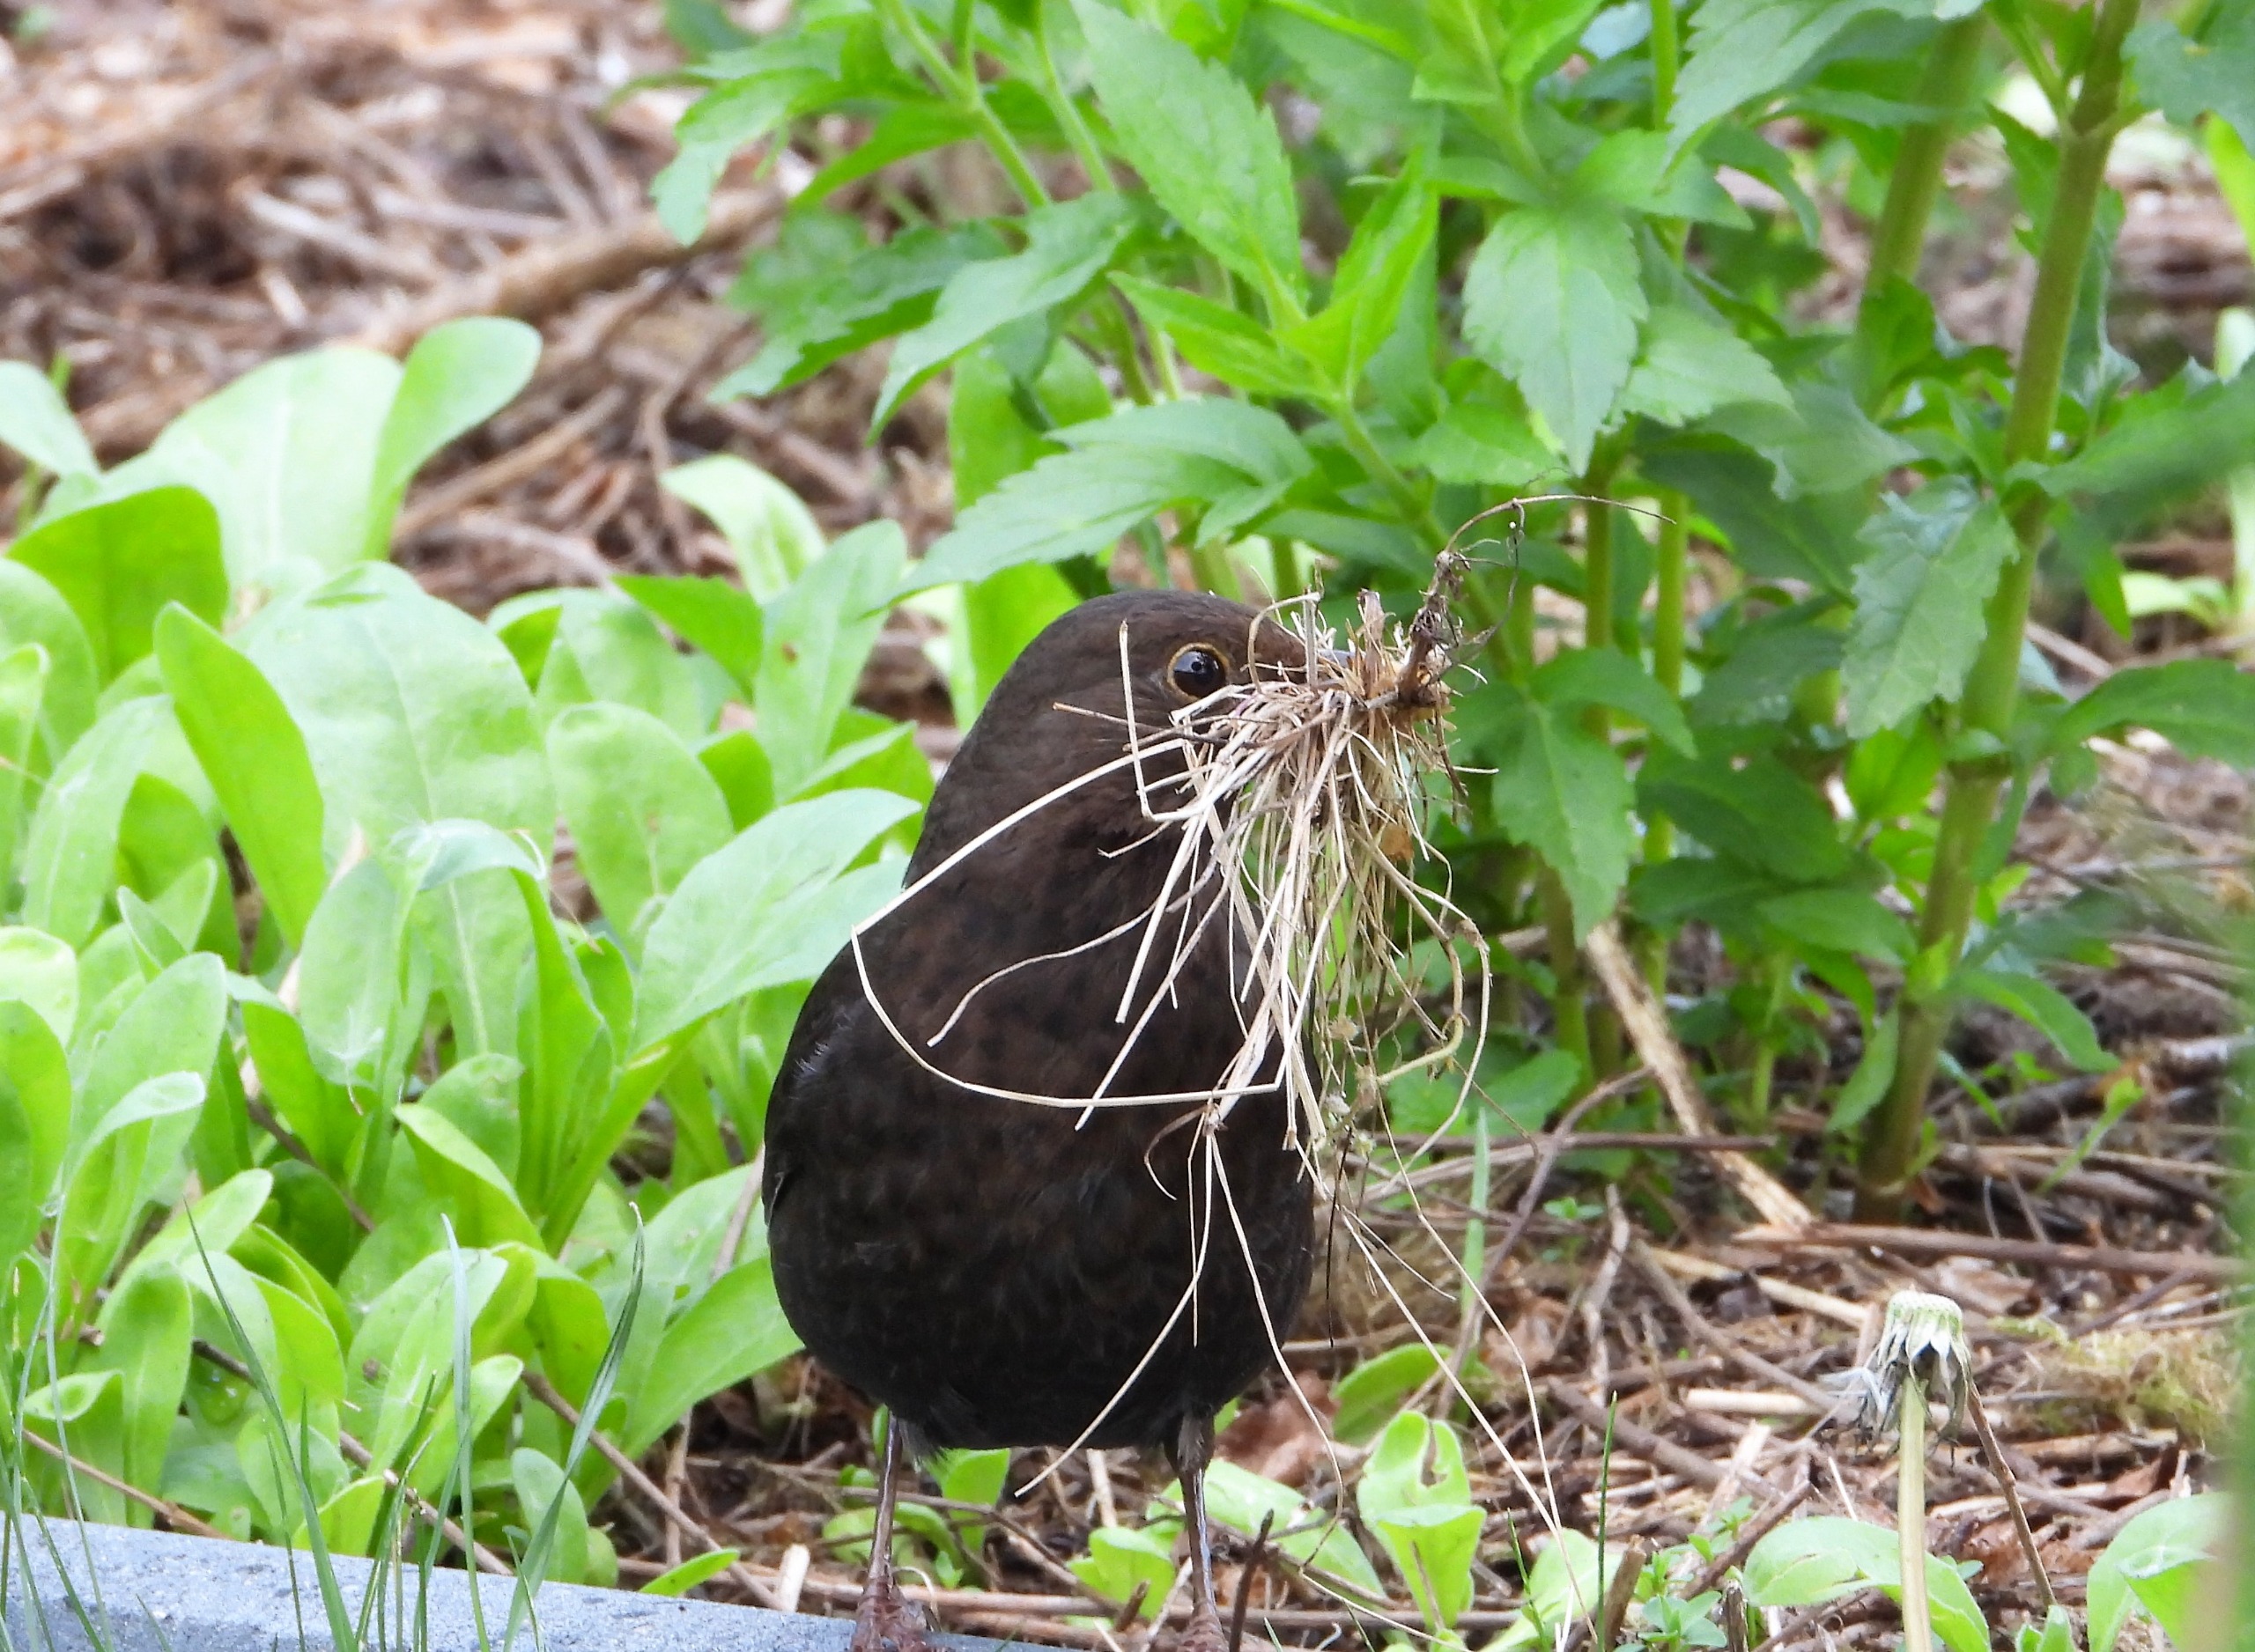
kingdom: Animalia
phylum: Chordata
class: Aves
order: Passeriformes
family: Turdidae
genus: Turdus
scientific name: Turdus merula
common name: Solsort
